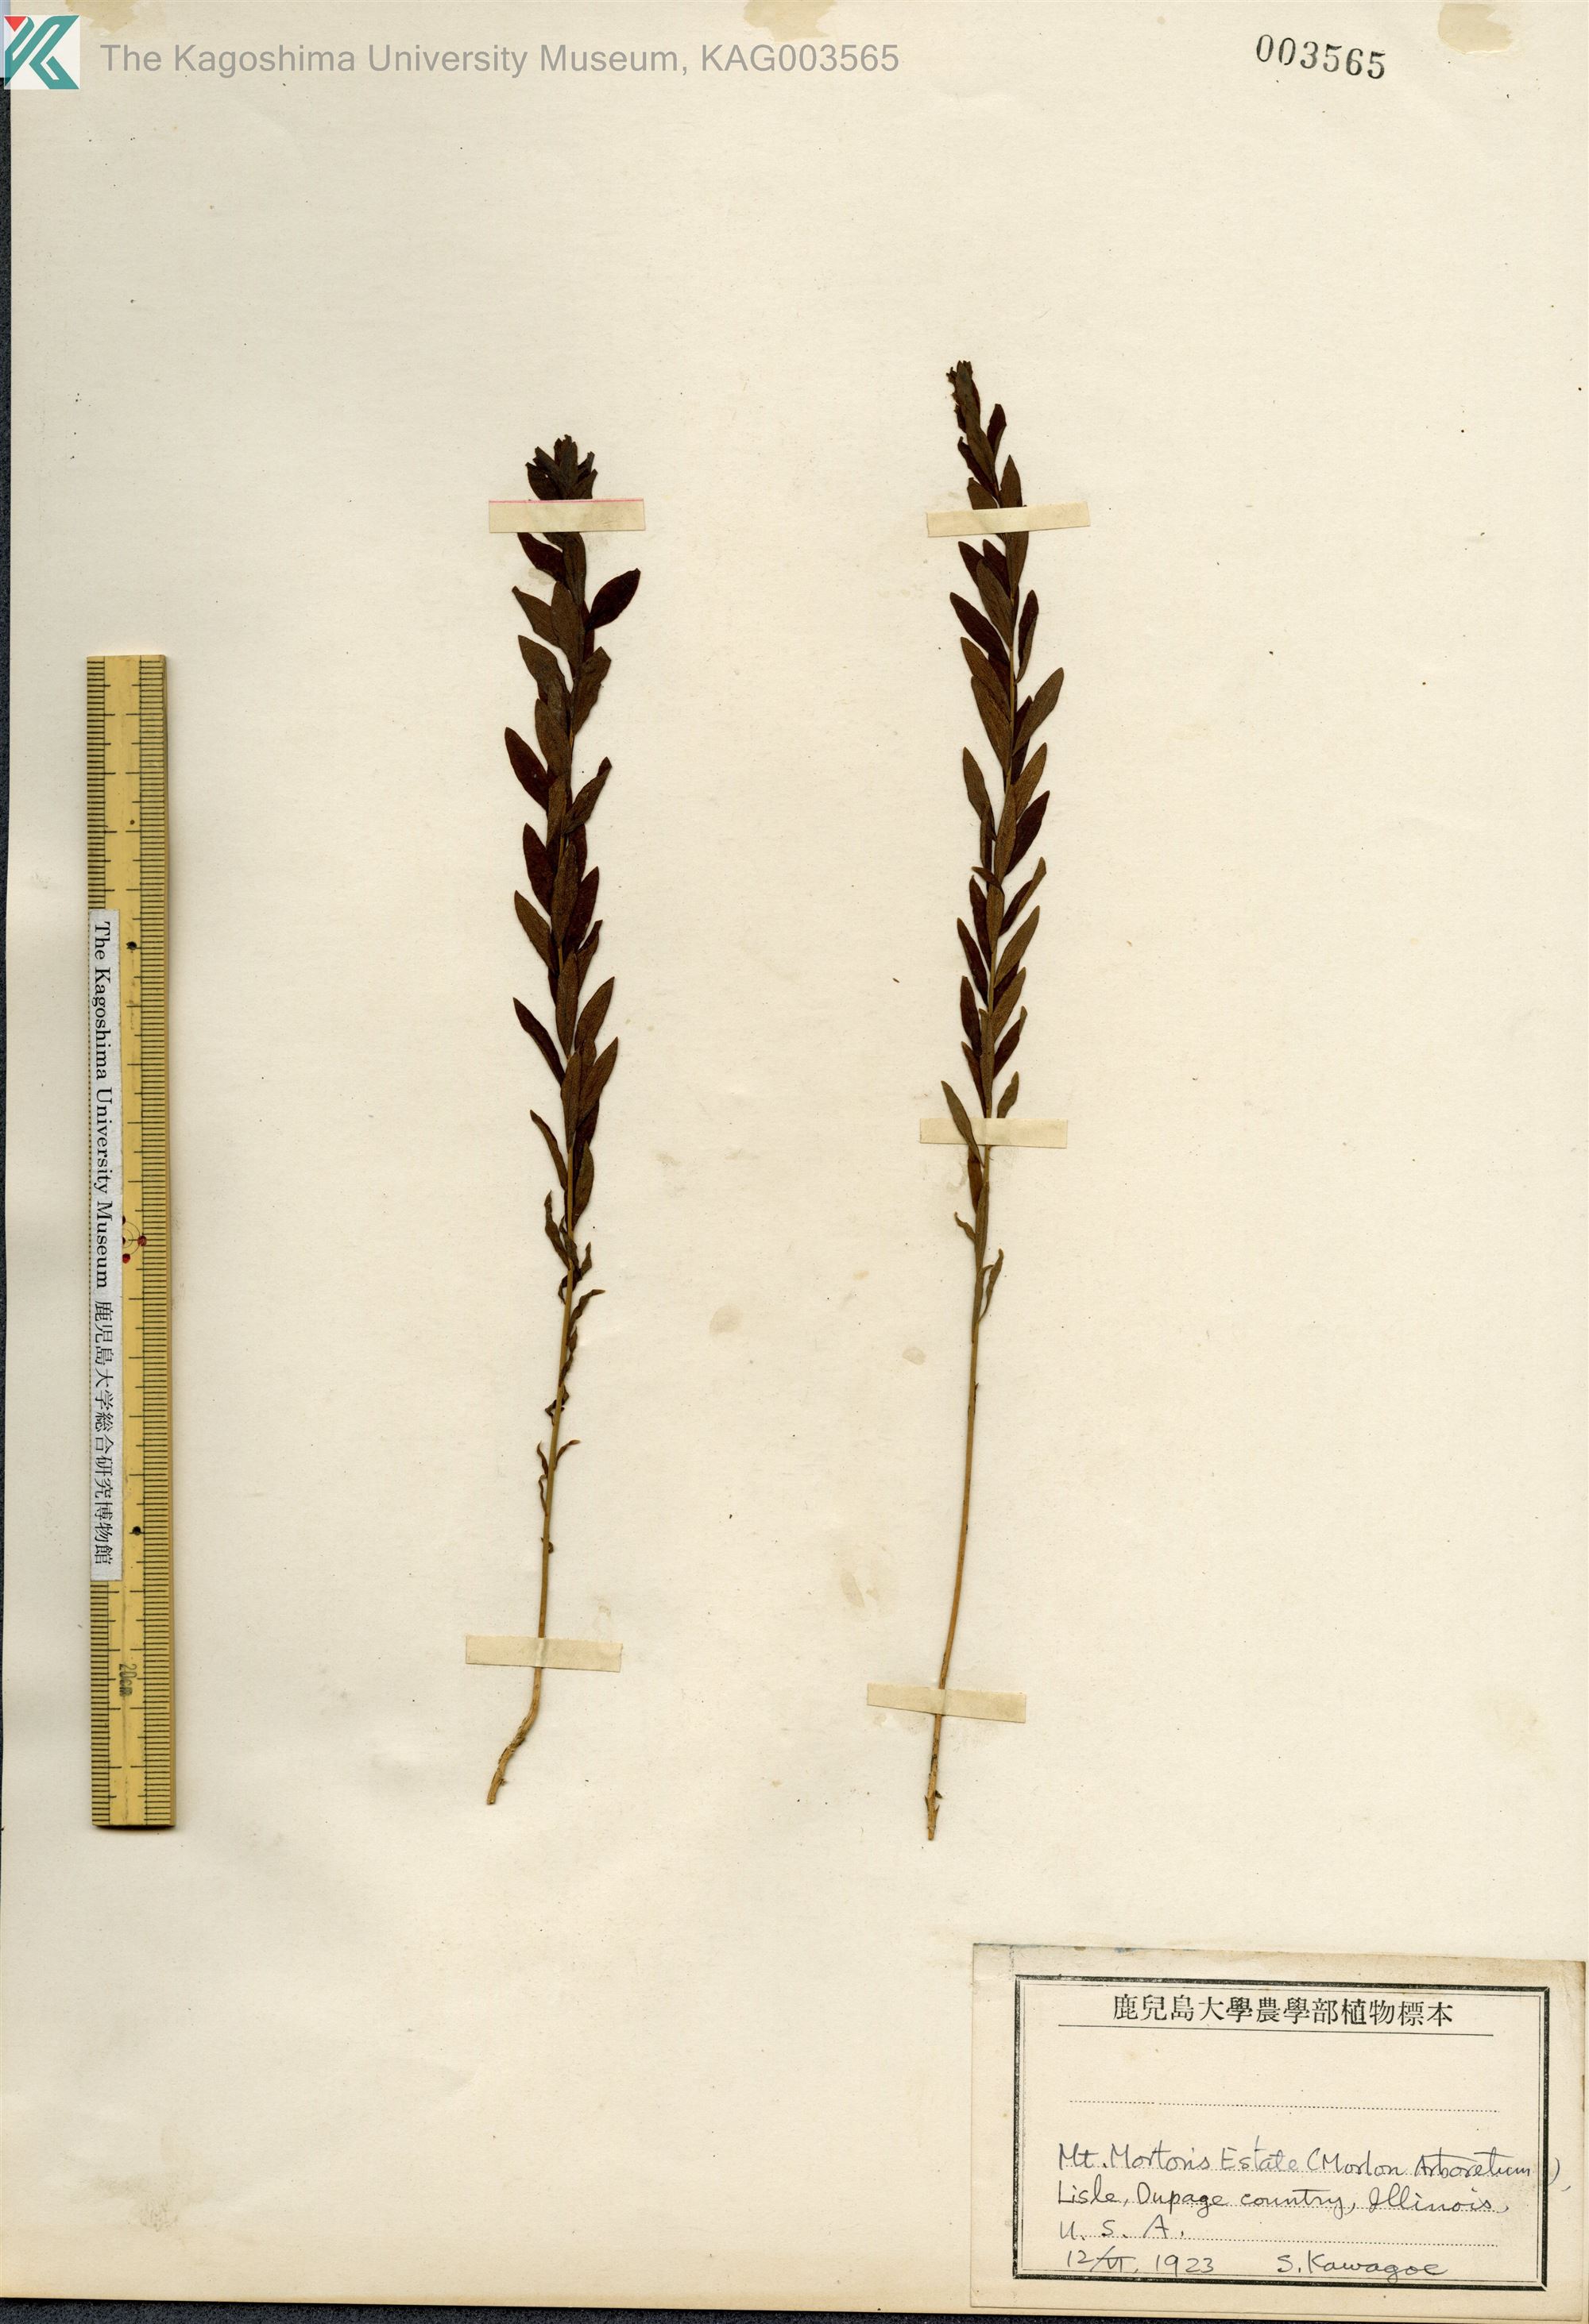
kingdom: Plantae
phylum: Tracheophyta
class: Magnoliopsida
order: Boraginales
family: Boraginaceae
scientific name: Boraginaceae
